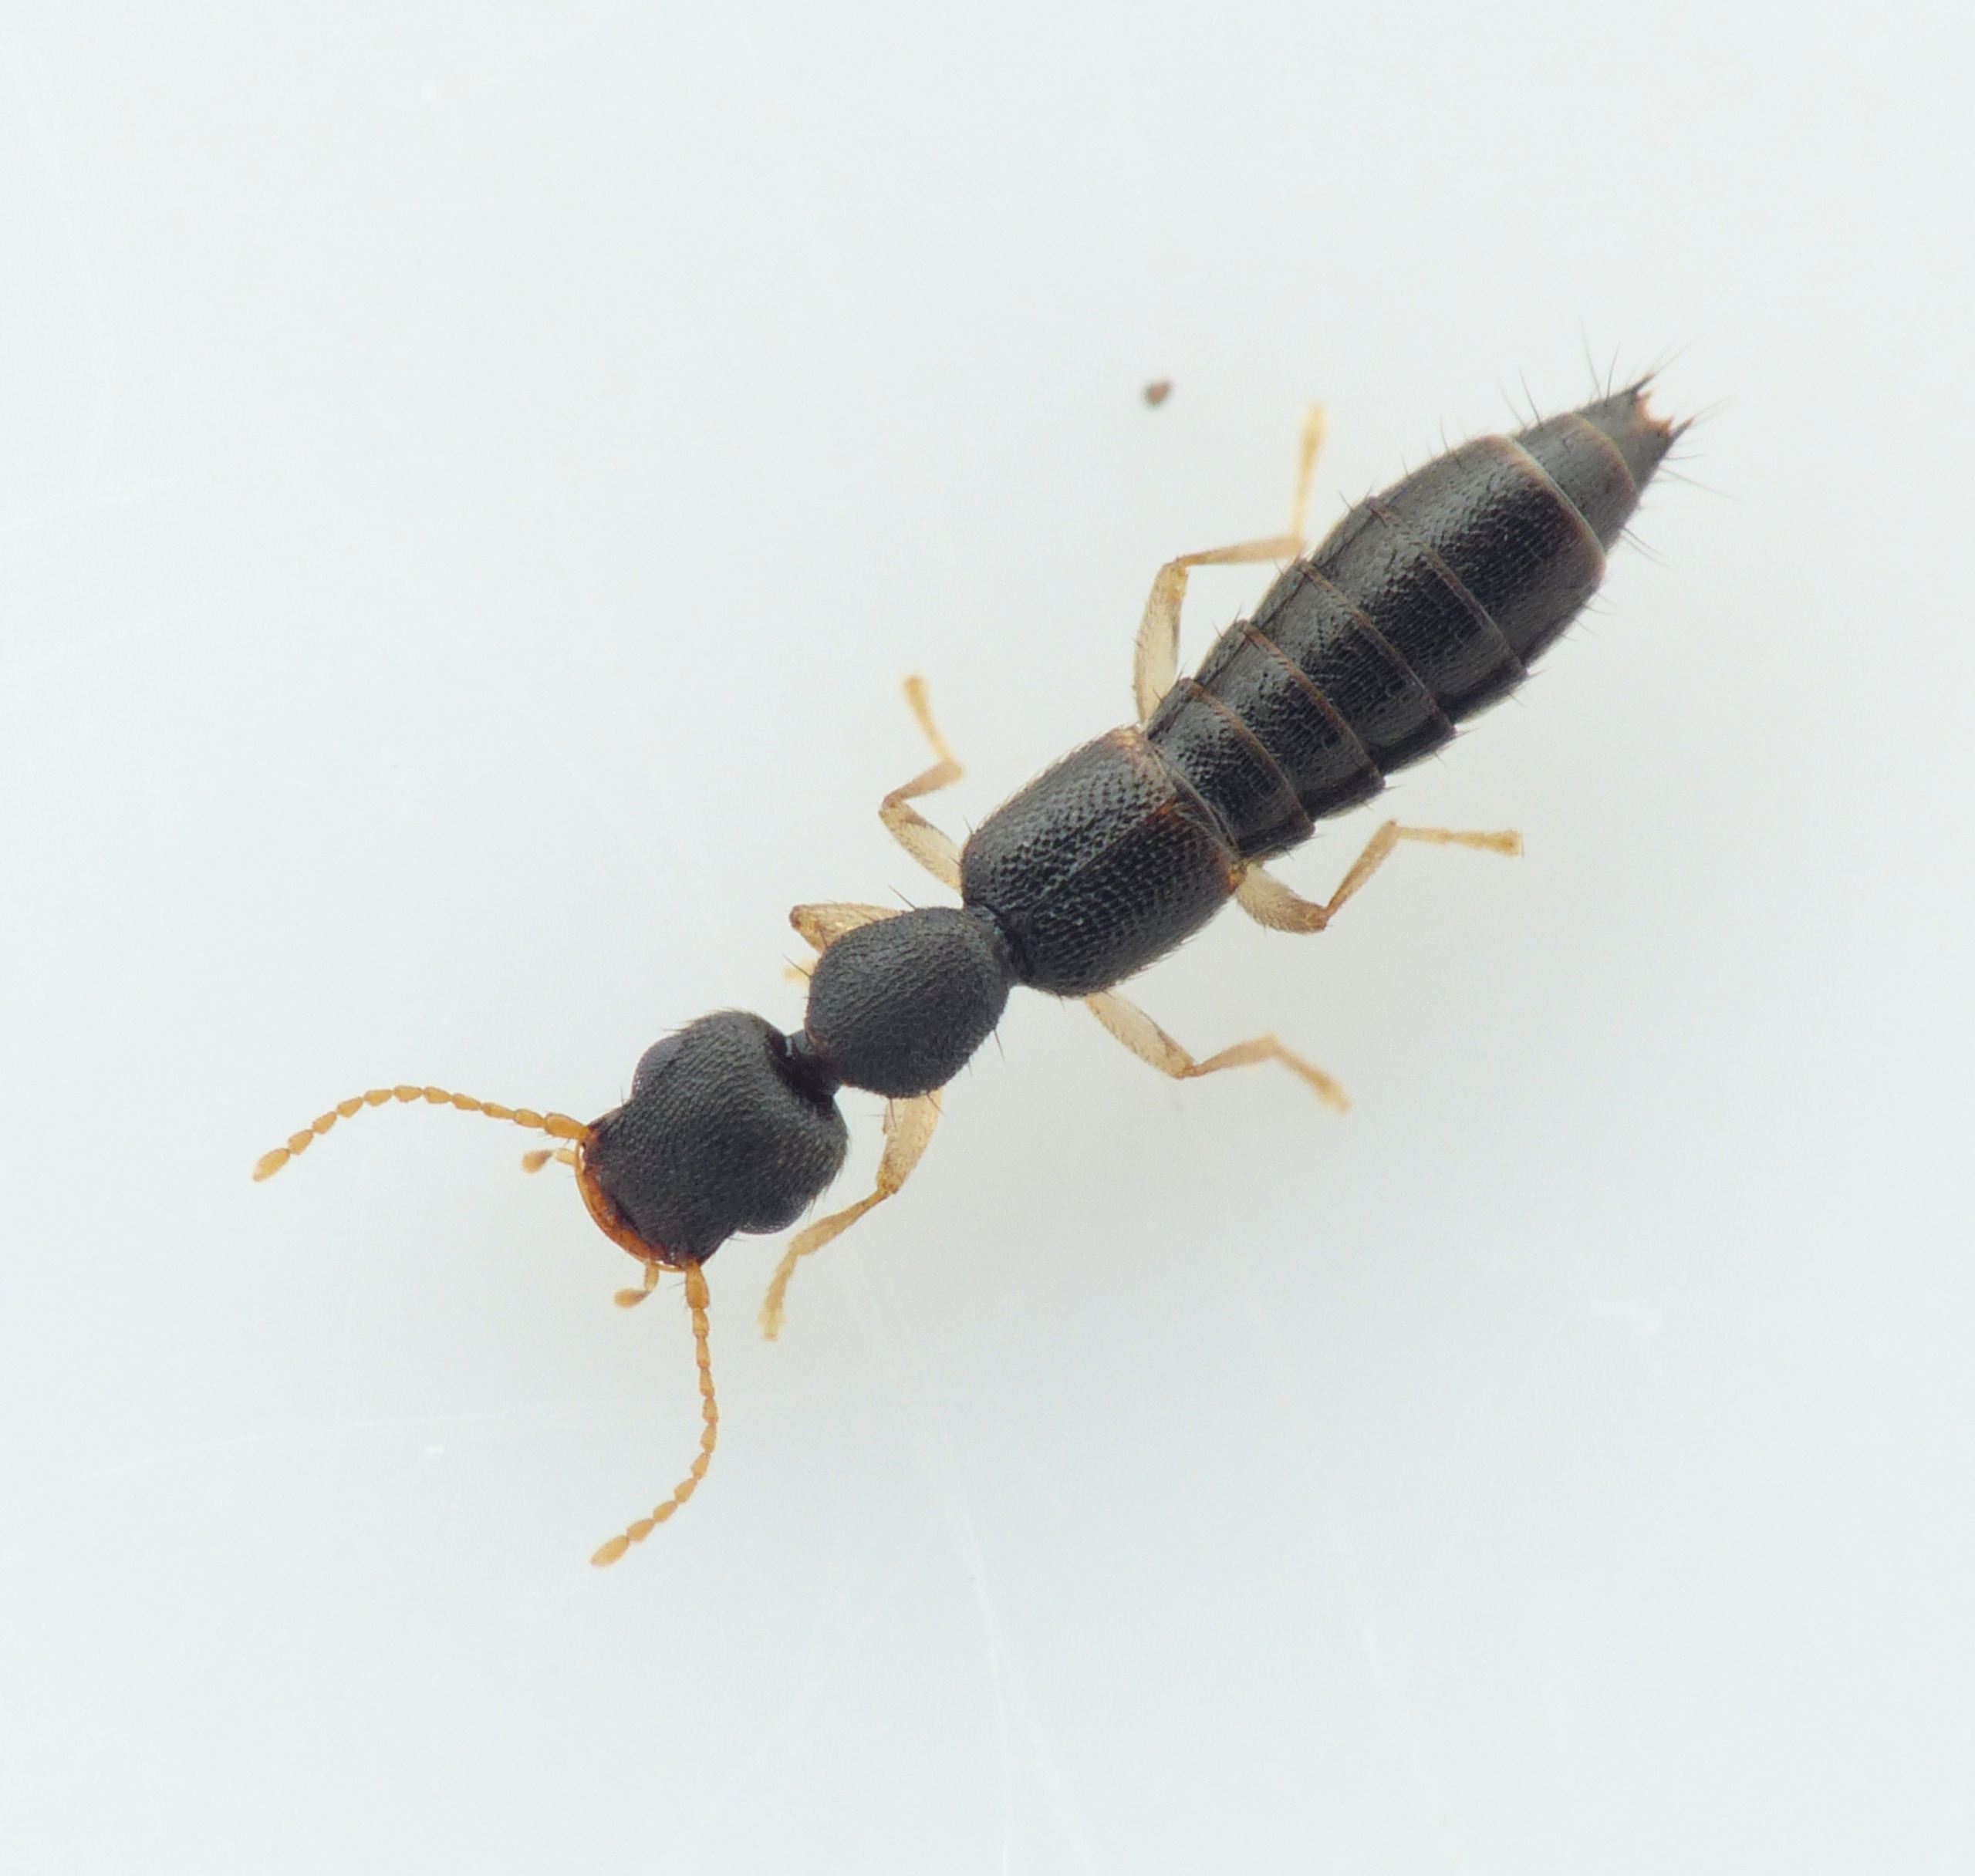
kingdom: Animalia
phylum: Arthropoda
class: Insecta
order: Coleoptera
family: Staphylinidae
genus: Astenus
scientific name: Astenus immaculatus
